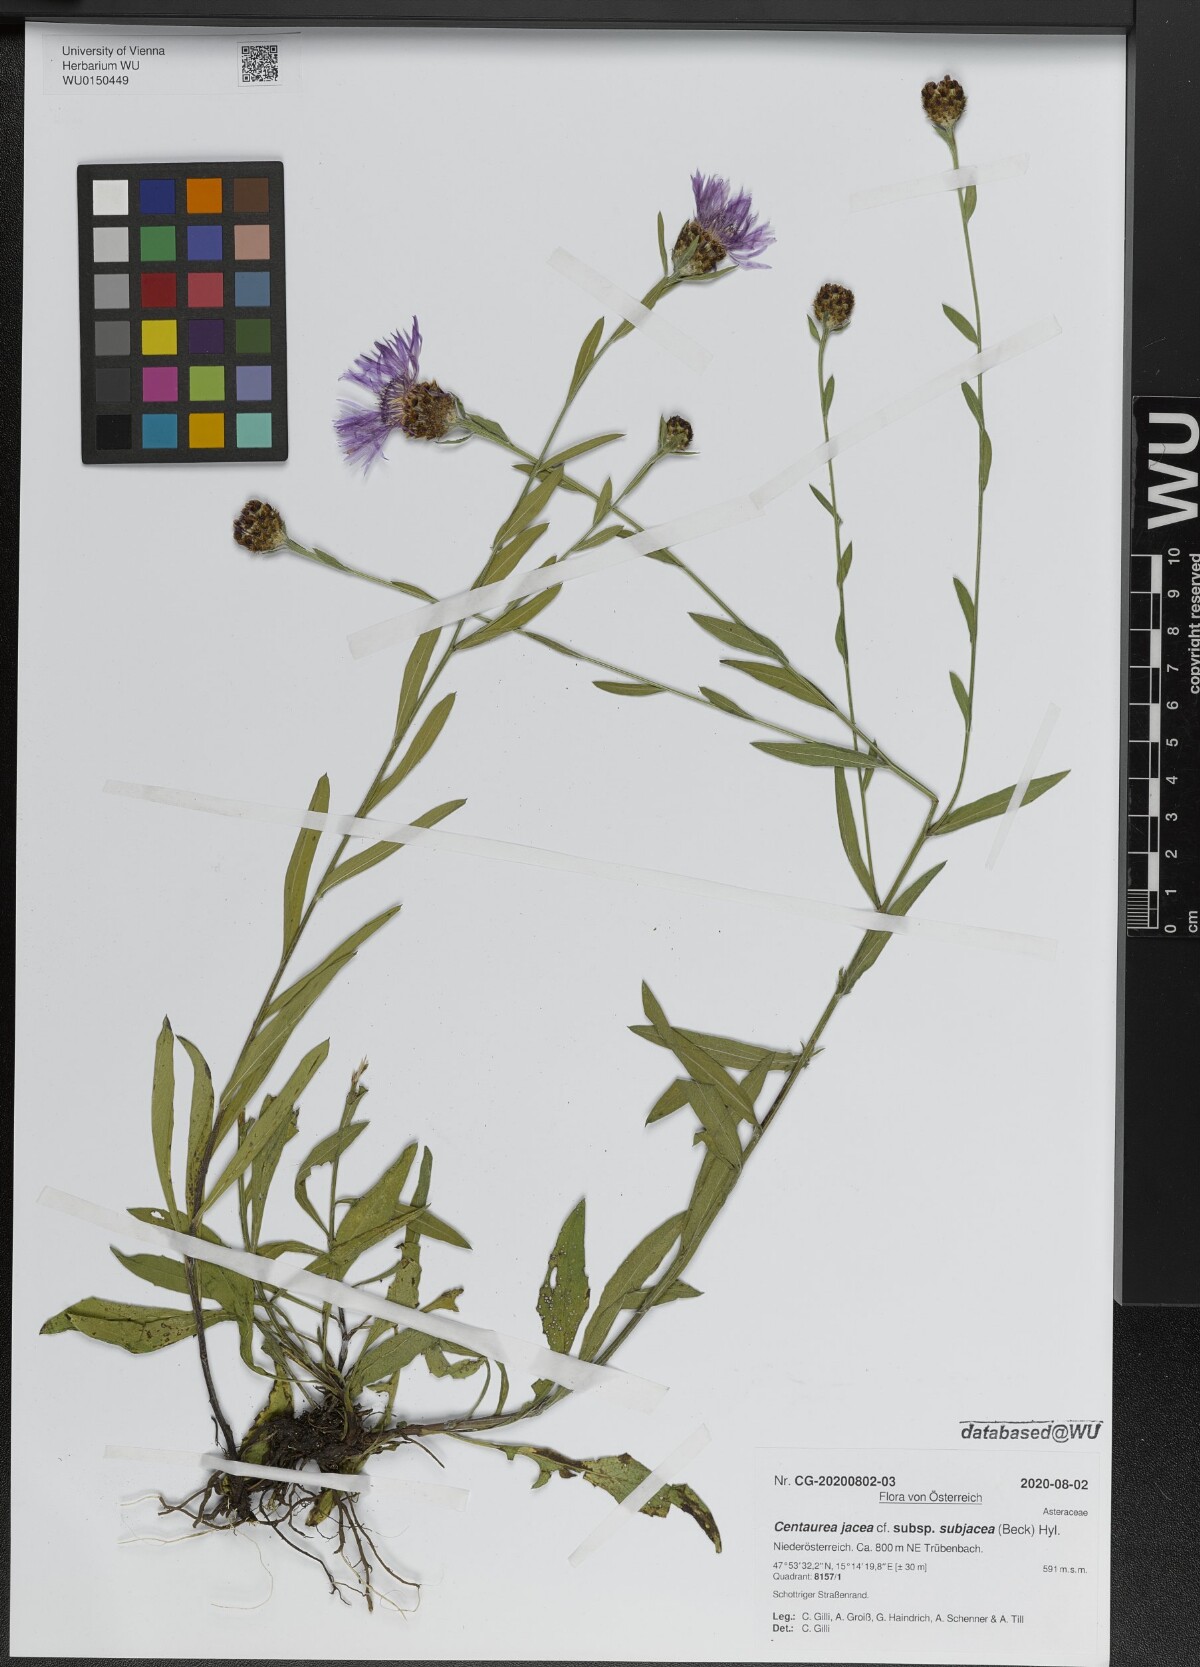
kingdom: Plantae
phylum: Tracheophyta
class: Magnoliopsida
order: Asterales
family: Asteraceae
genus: Centaurea
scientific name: Centaurea preissmannii
